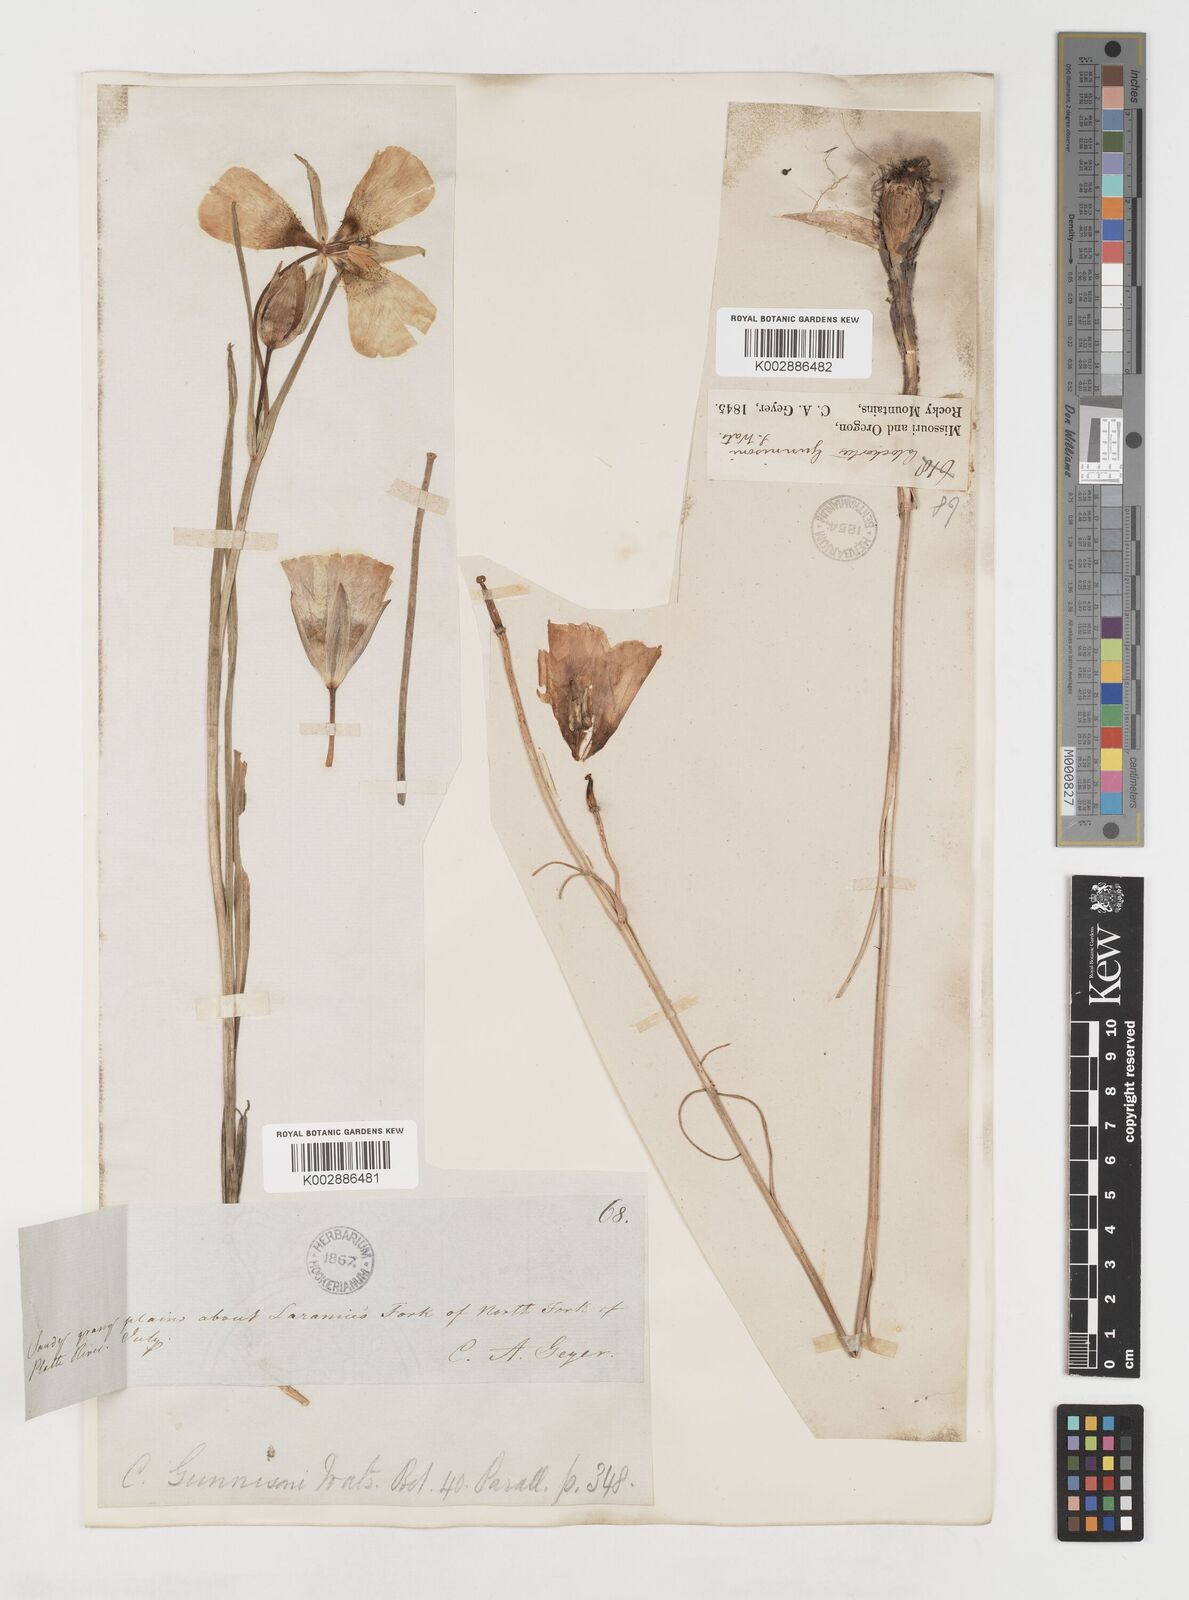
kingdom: Plantae
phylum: Tracheophyta
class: Liliopsida
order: Liliales
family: Liliaceae
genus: Calochortus
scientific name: Calochortus gunnisonii
